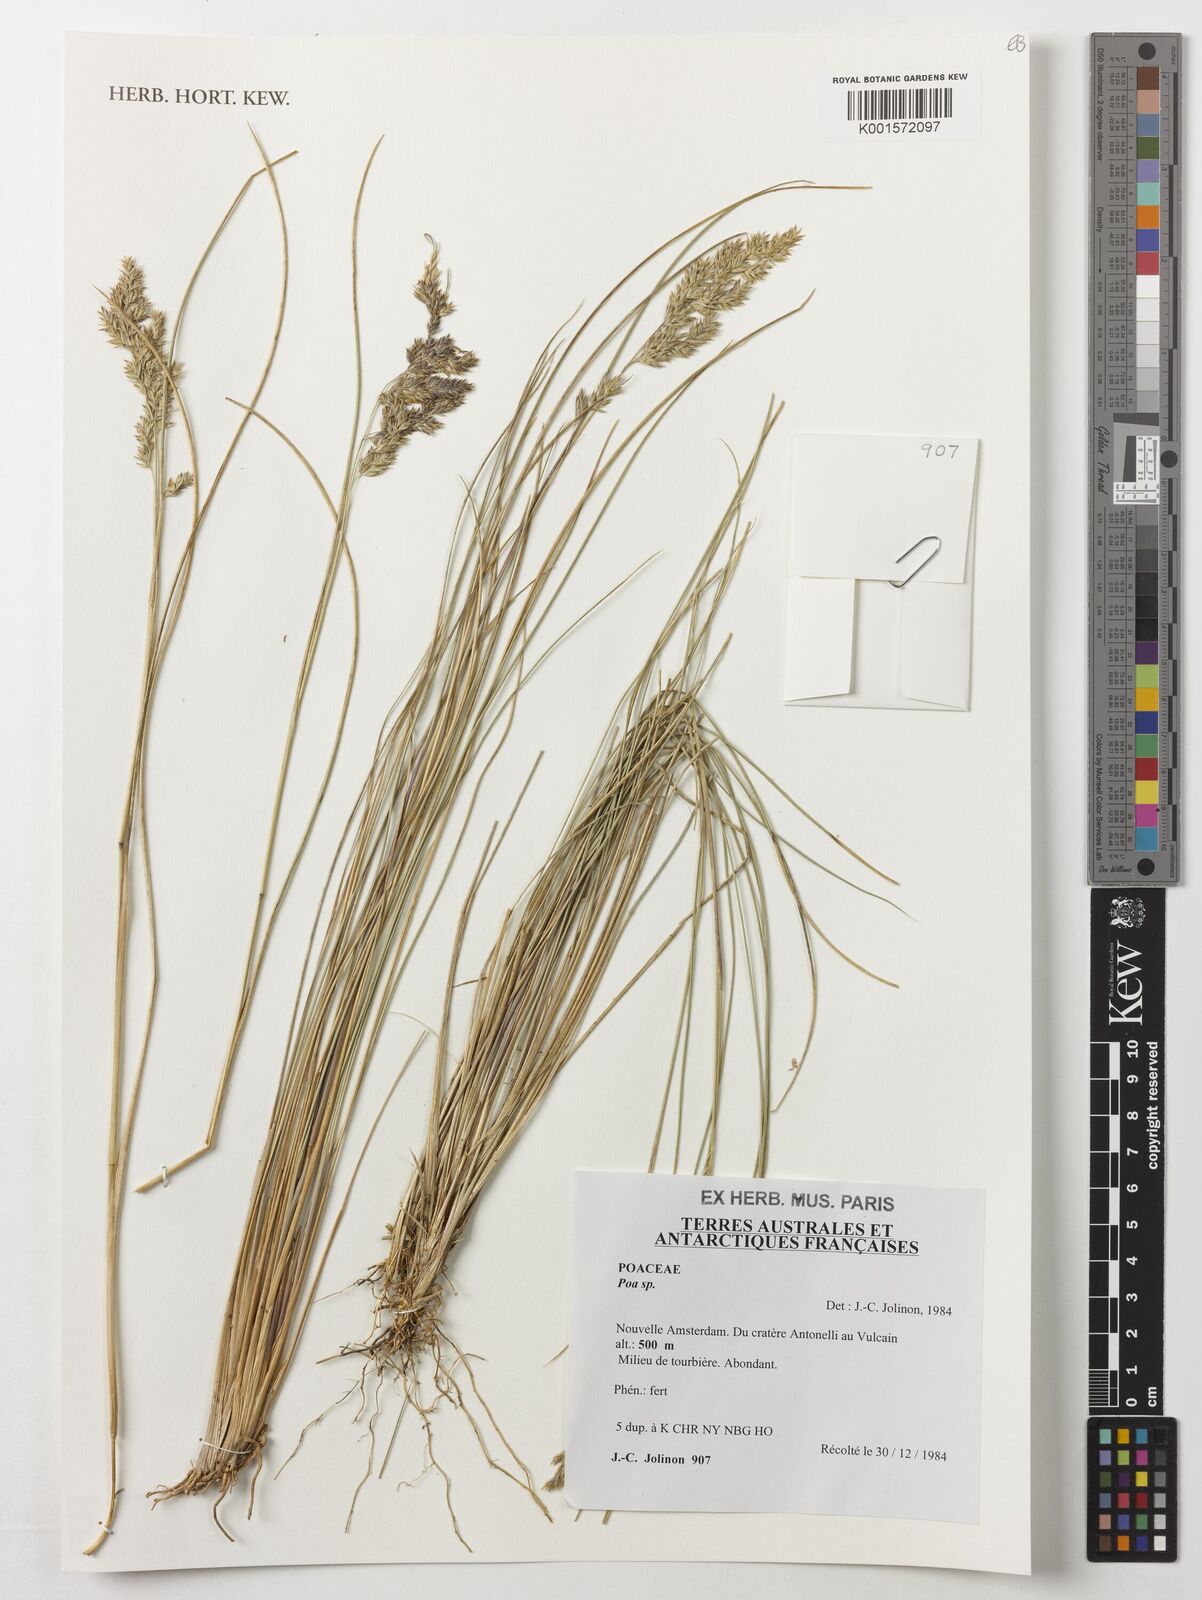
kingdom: Plantae
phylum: Tracheophyta
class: Liliopsida
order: Poales
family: Poaceae
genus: Poa
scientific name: Poa
